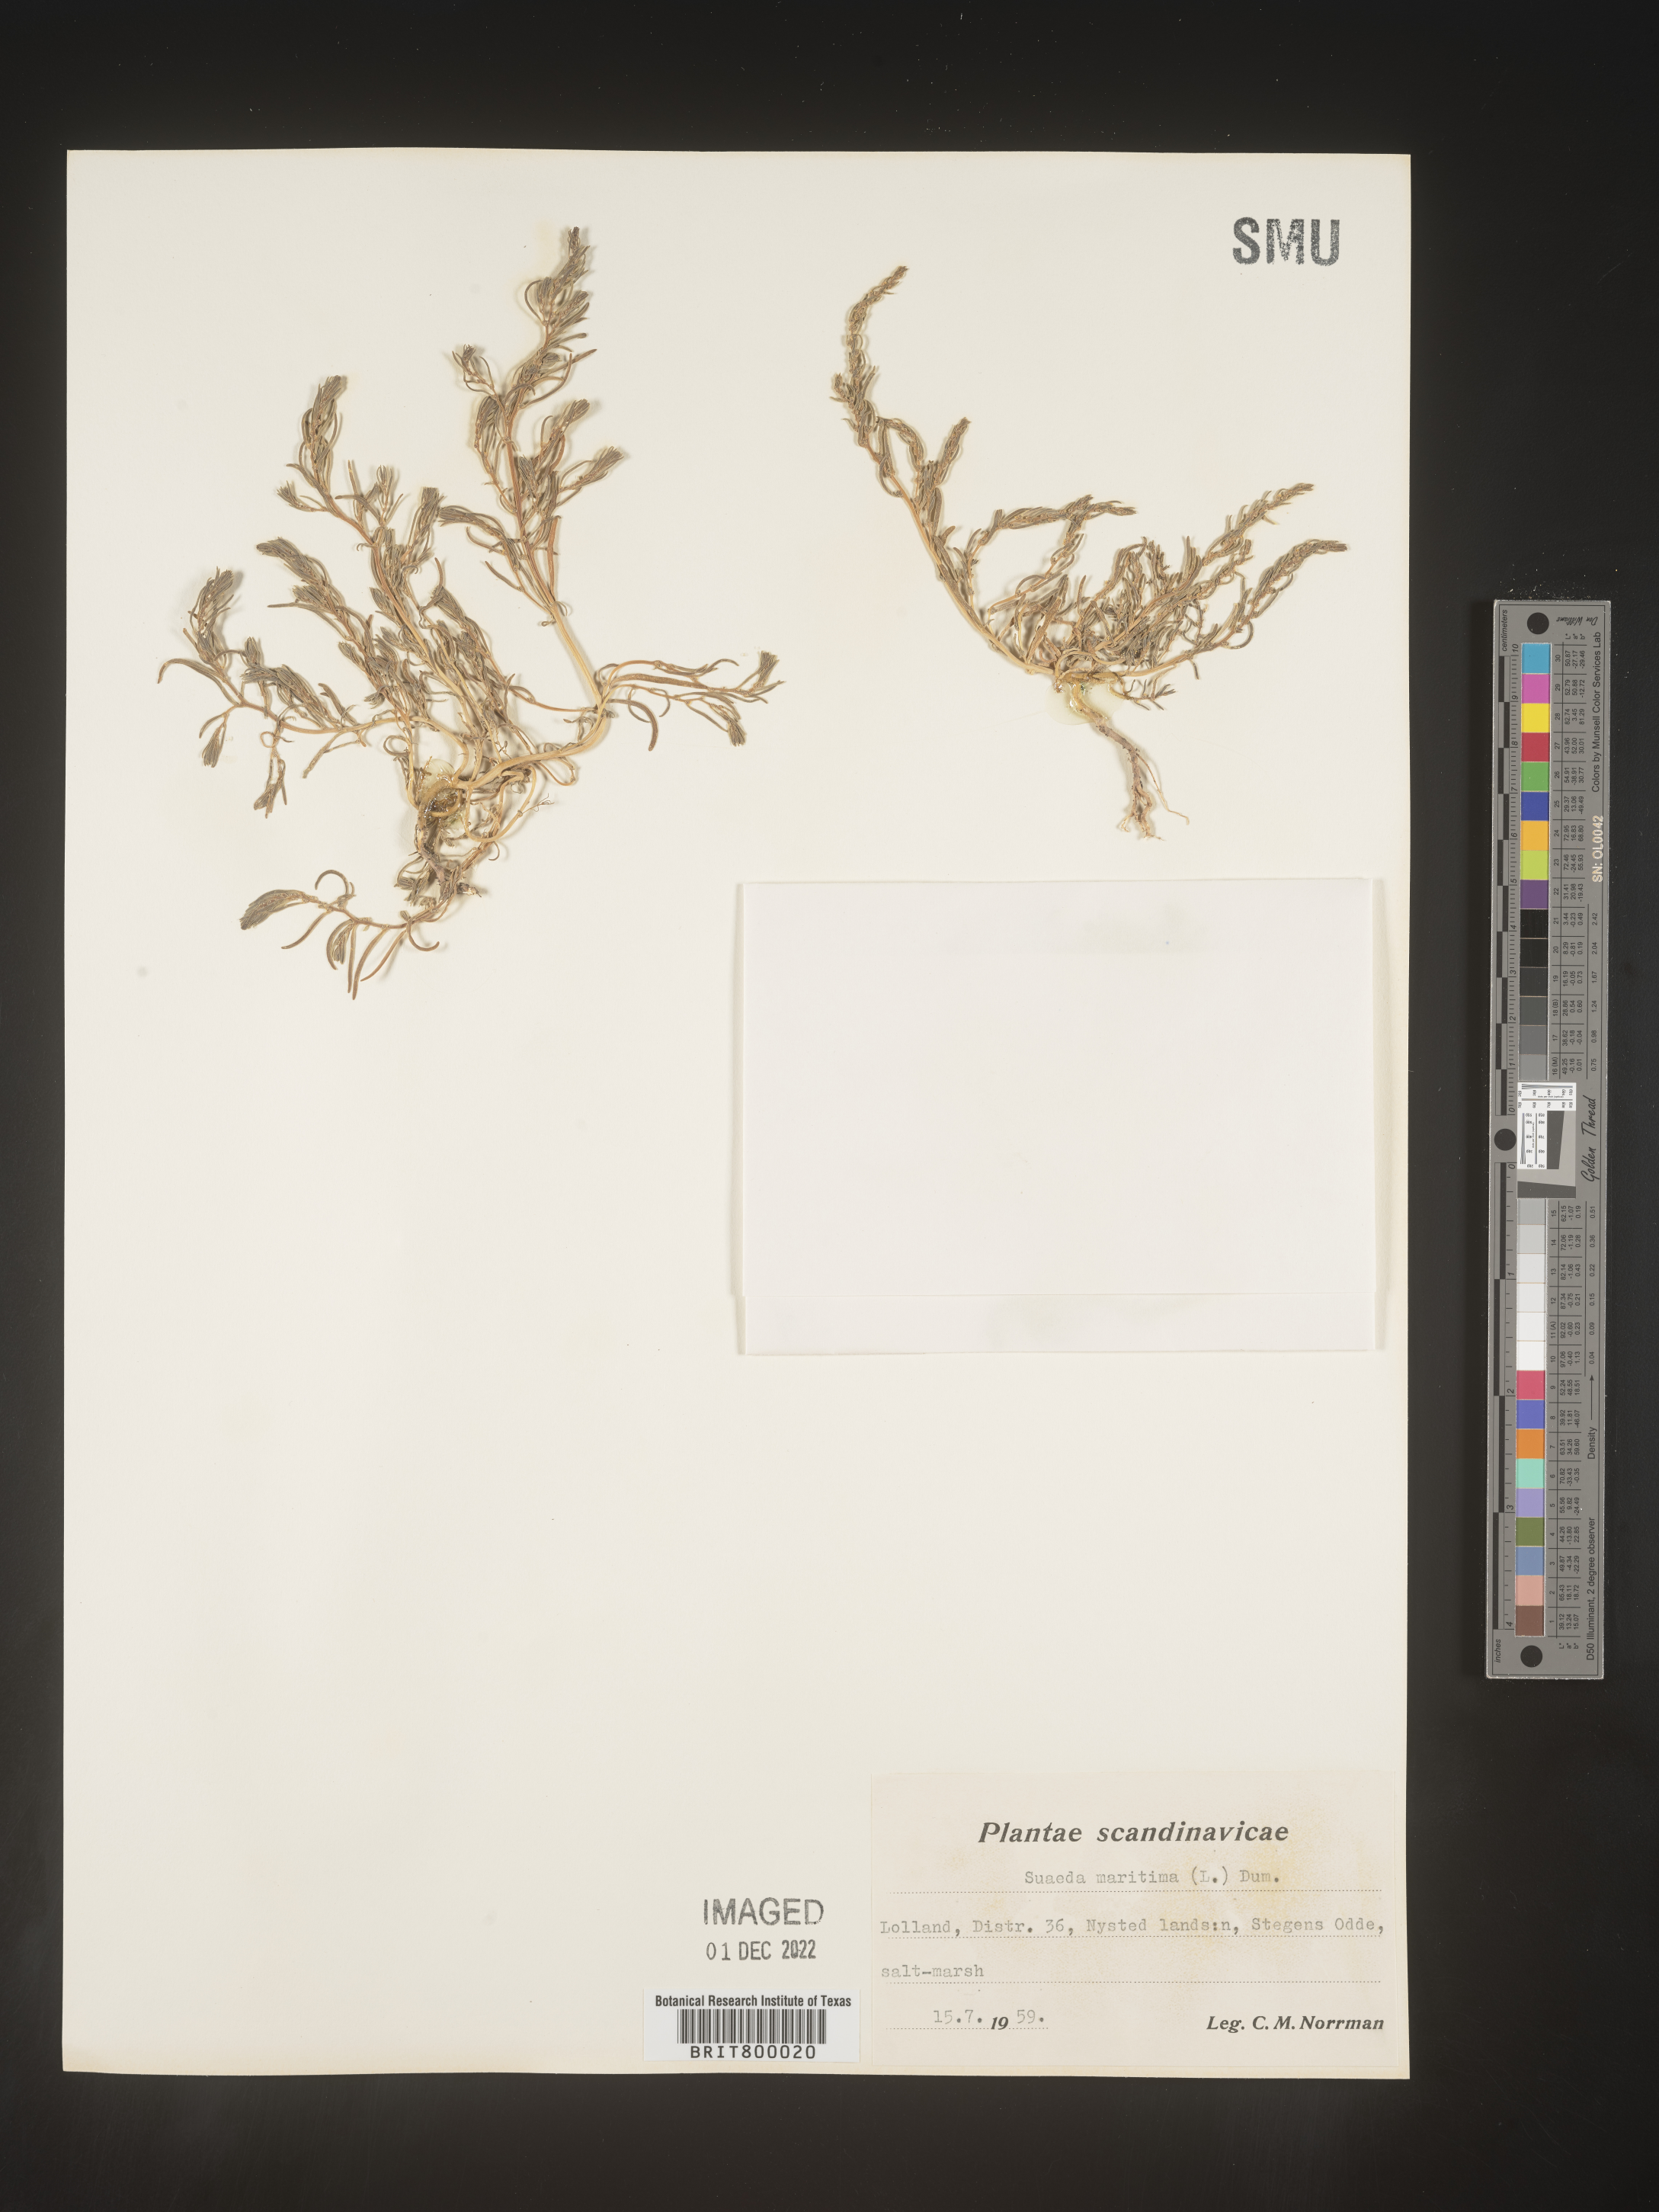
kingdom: Plantae
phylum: Tracheophyta
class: Magnoliopsida
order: Caryophyllales
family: Amaranthaceae
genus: Suaeda
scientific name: Suaeda
